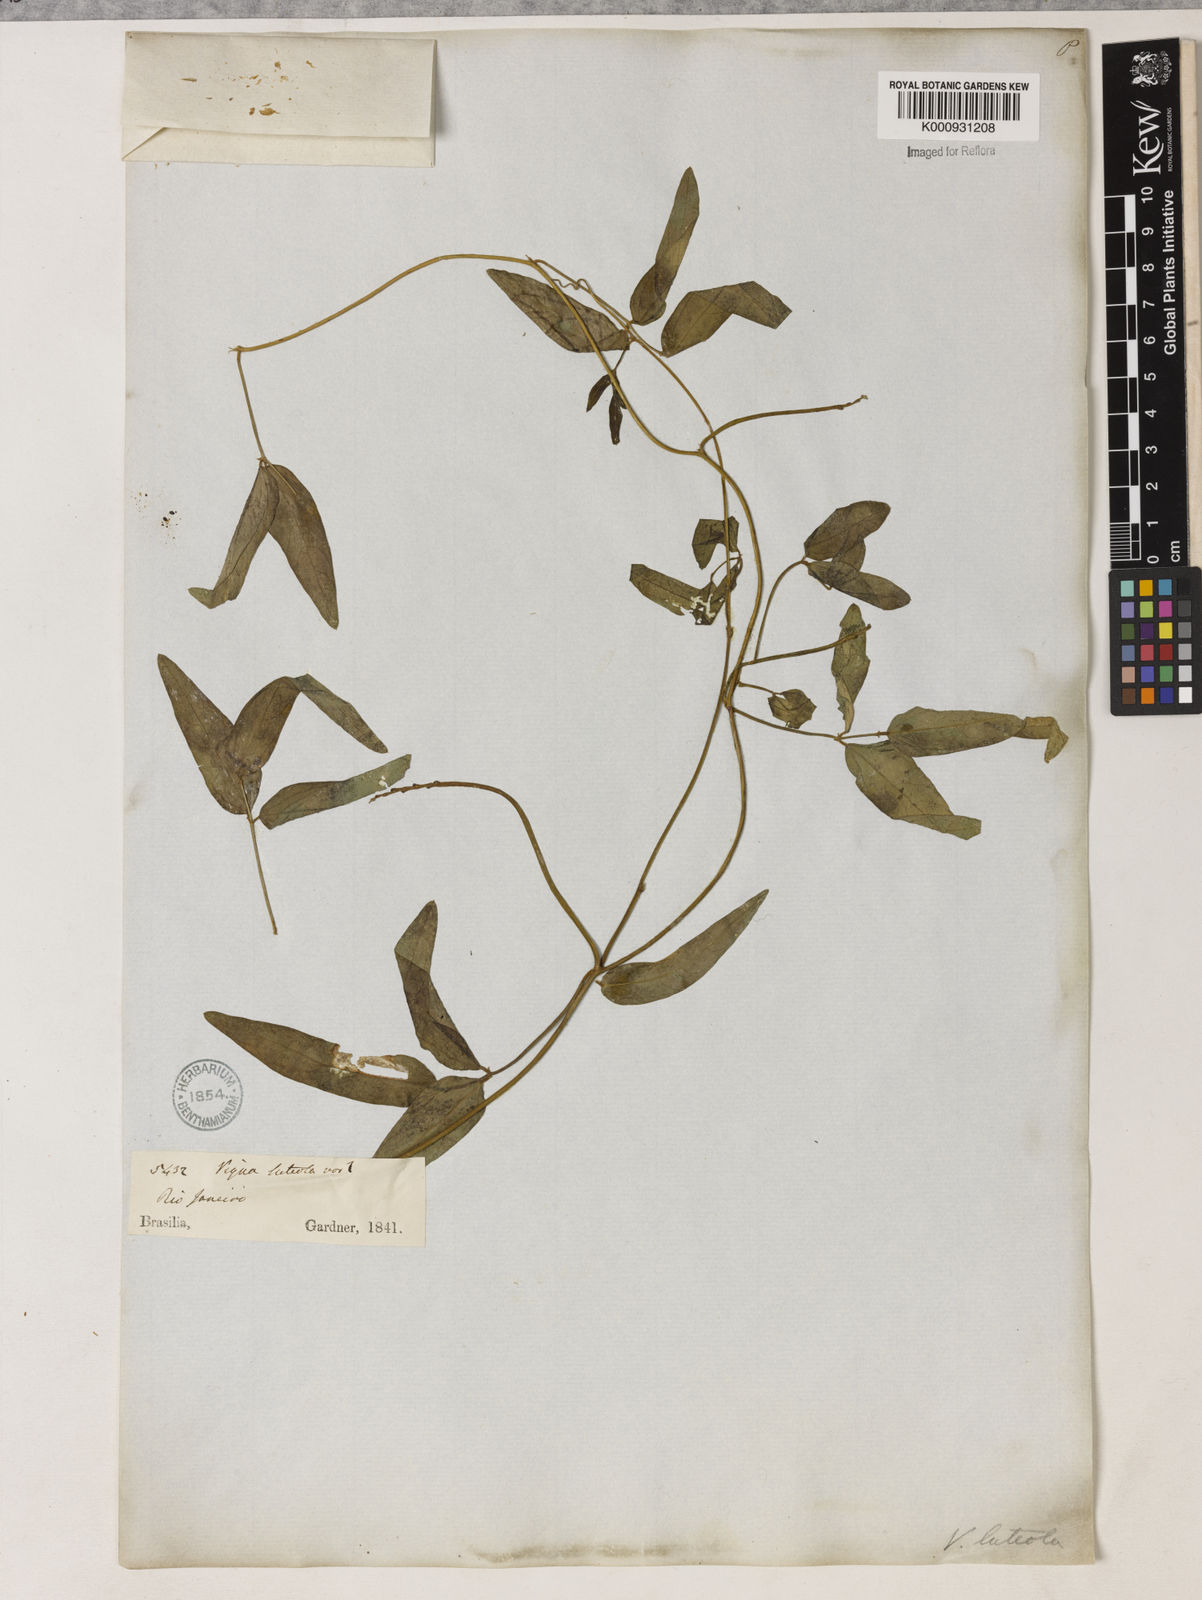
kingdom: Plantae
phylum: Tracheophyta
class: Magnoliopsida
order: Fabales
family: Fabaceae
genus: Vigna
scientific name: Vigna luteola
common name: Hairypod cowpea
